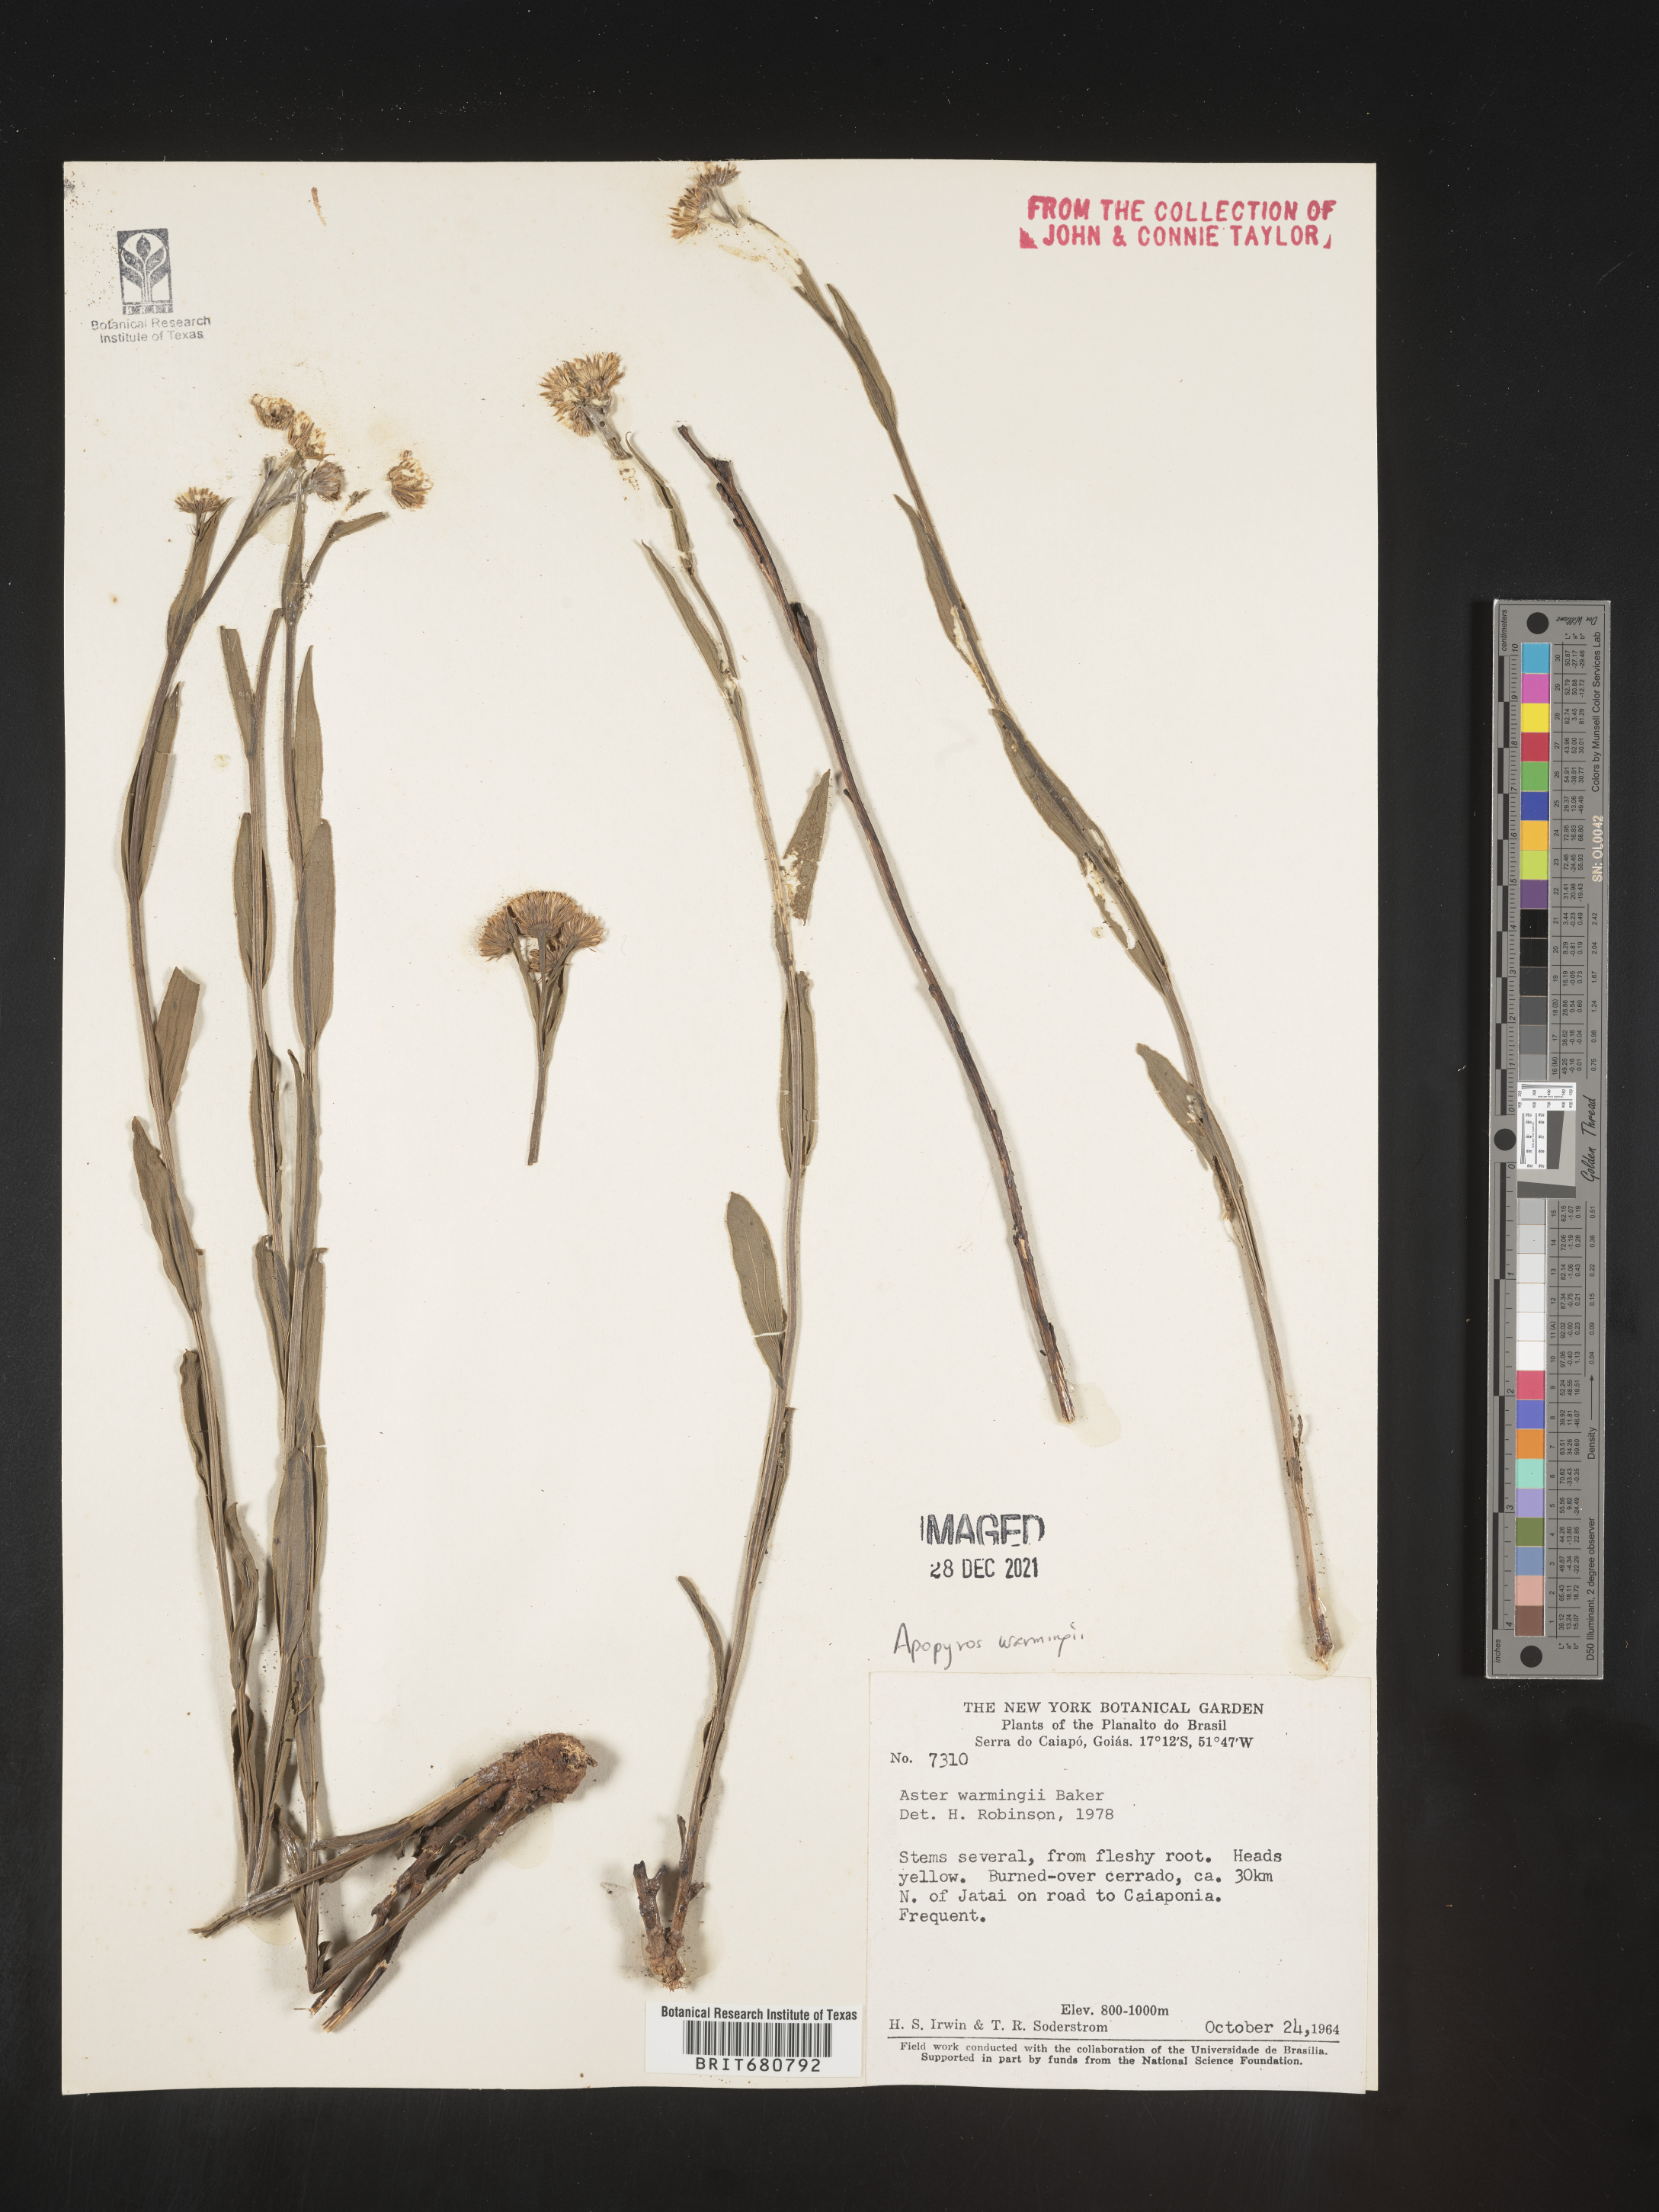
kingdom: Plantae
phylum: Tracheophyta
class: Magnoliopsida
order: Asterales
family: Asteraceae
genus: Apopyros
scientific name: Apopyros
